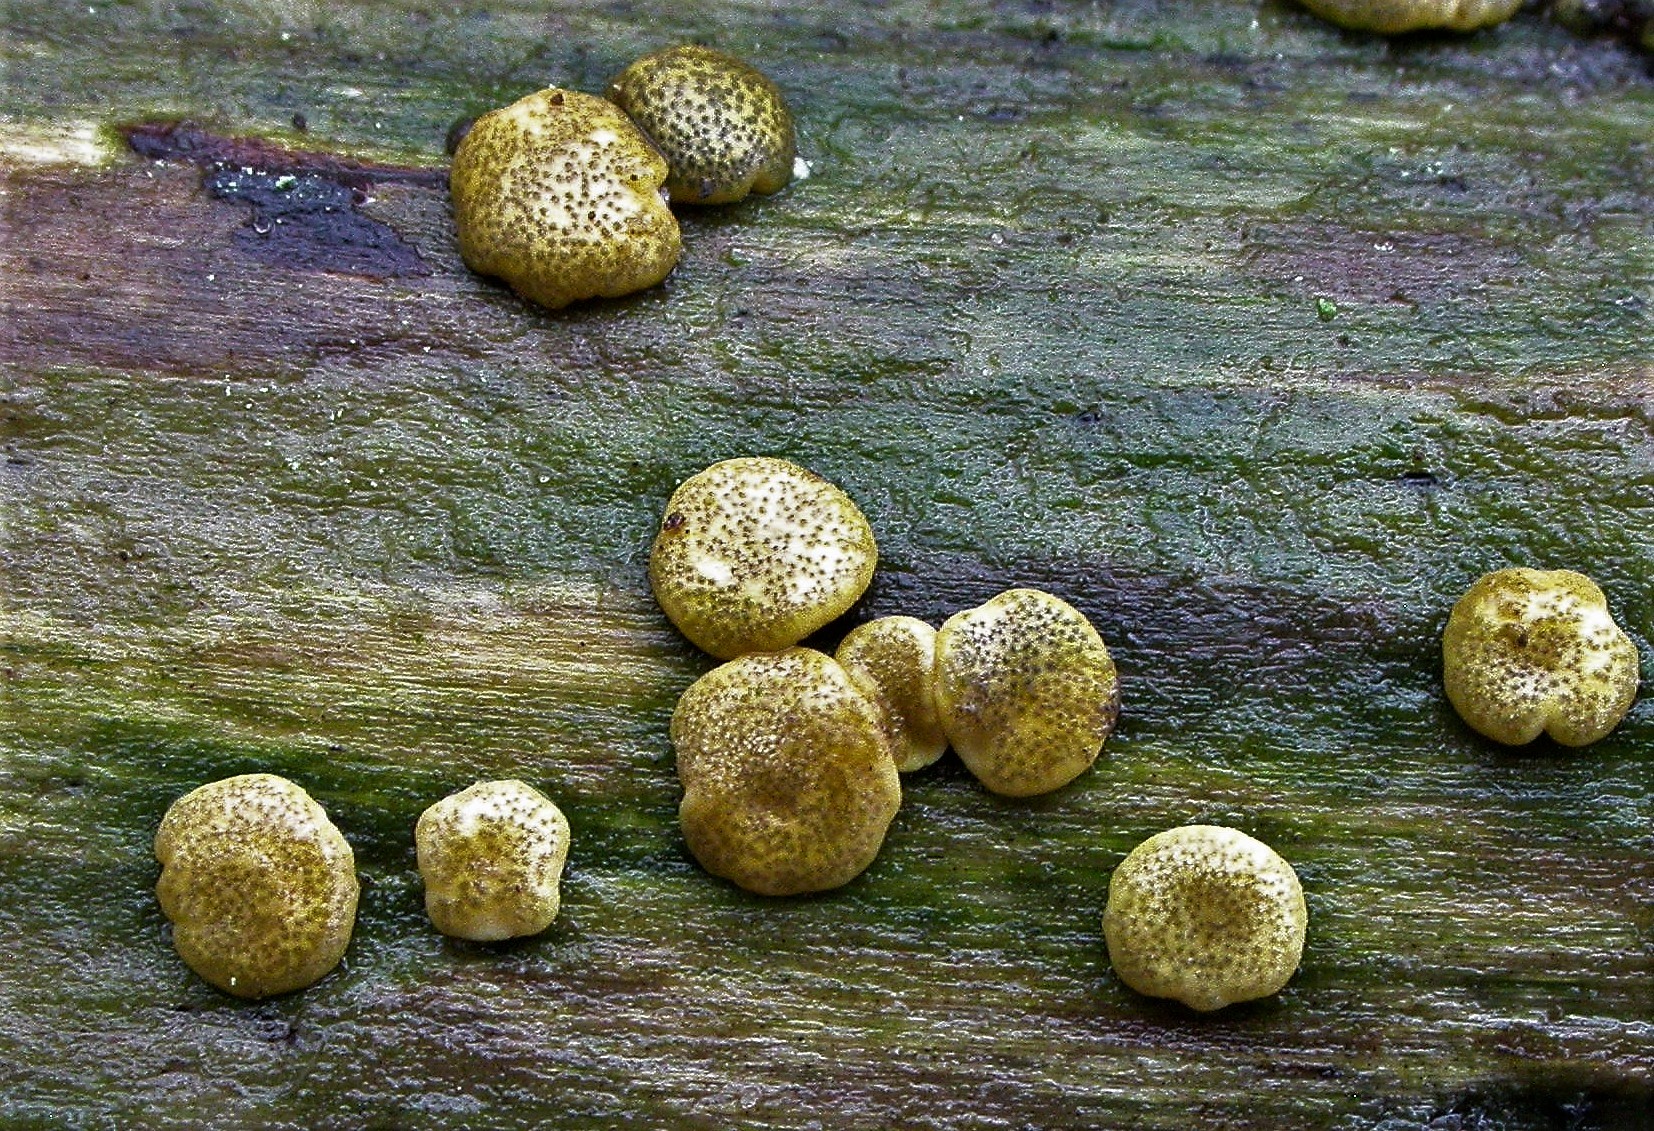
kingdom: Fungi
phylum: Ascomycota
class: Sordariomycetes
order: Hypocreales
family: Hypocreaceae
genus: Trichoderma
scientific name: Trichoderma aureoviride
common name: æggegul kødkerne
